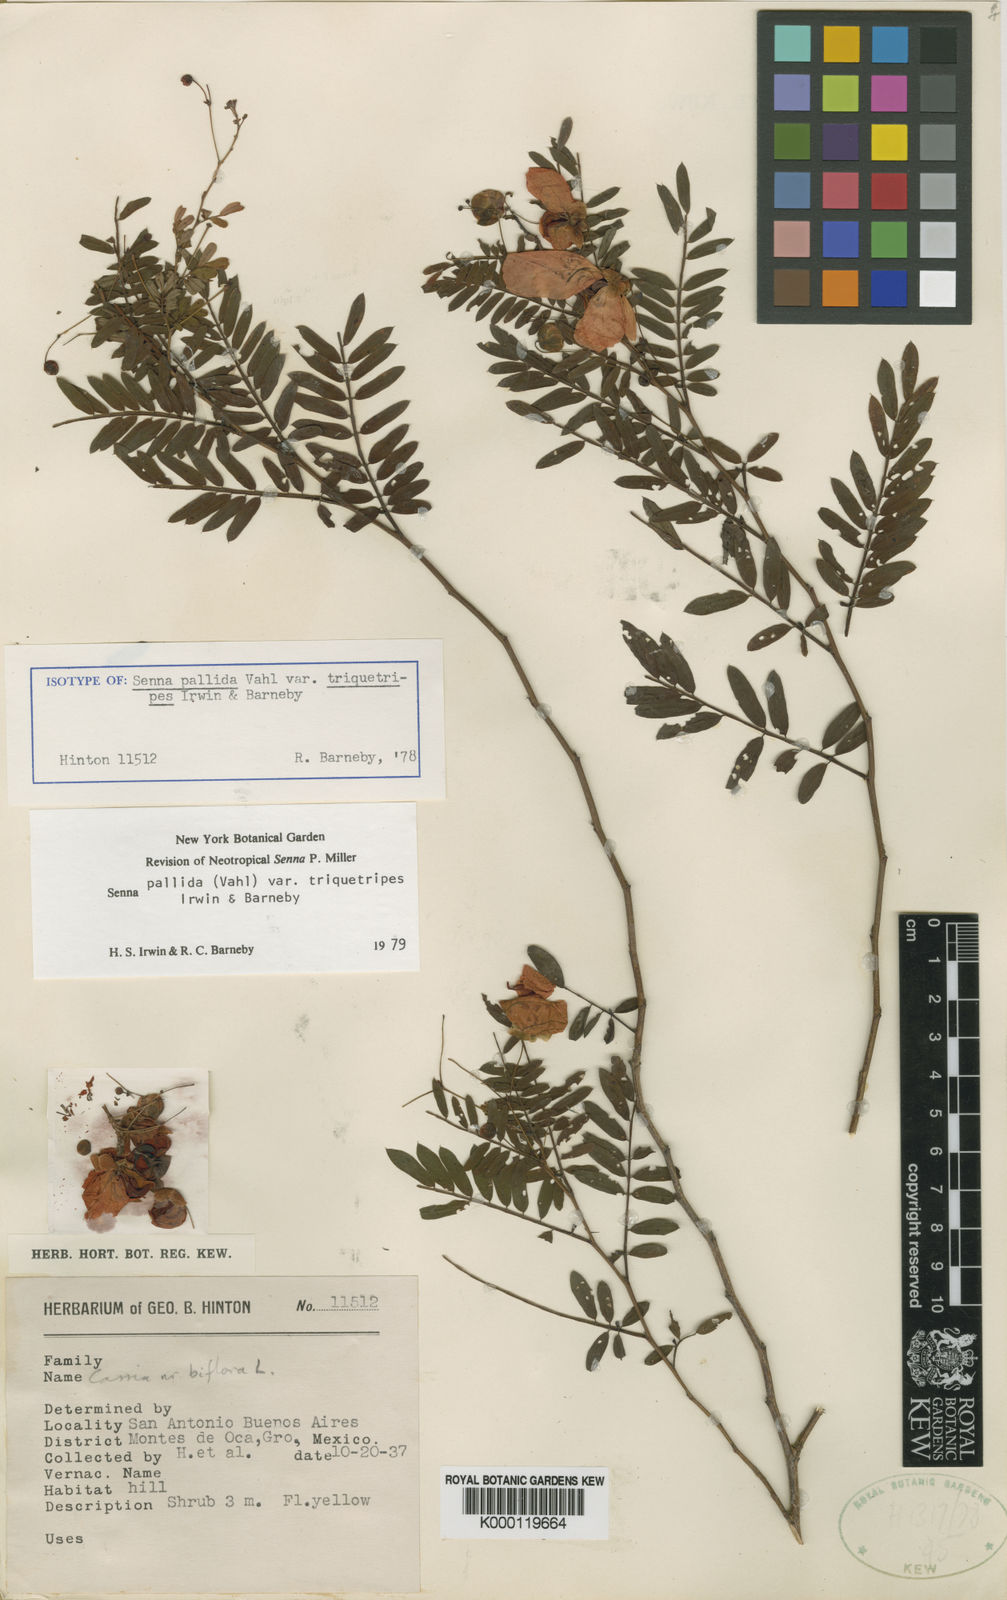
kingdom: Plantae
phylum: Tracheophyta
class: Magnoliopsida
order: Fabales
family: Fabaceae
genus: Senna
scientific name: Senna pallida
